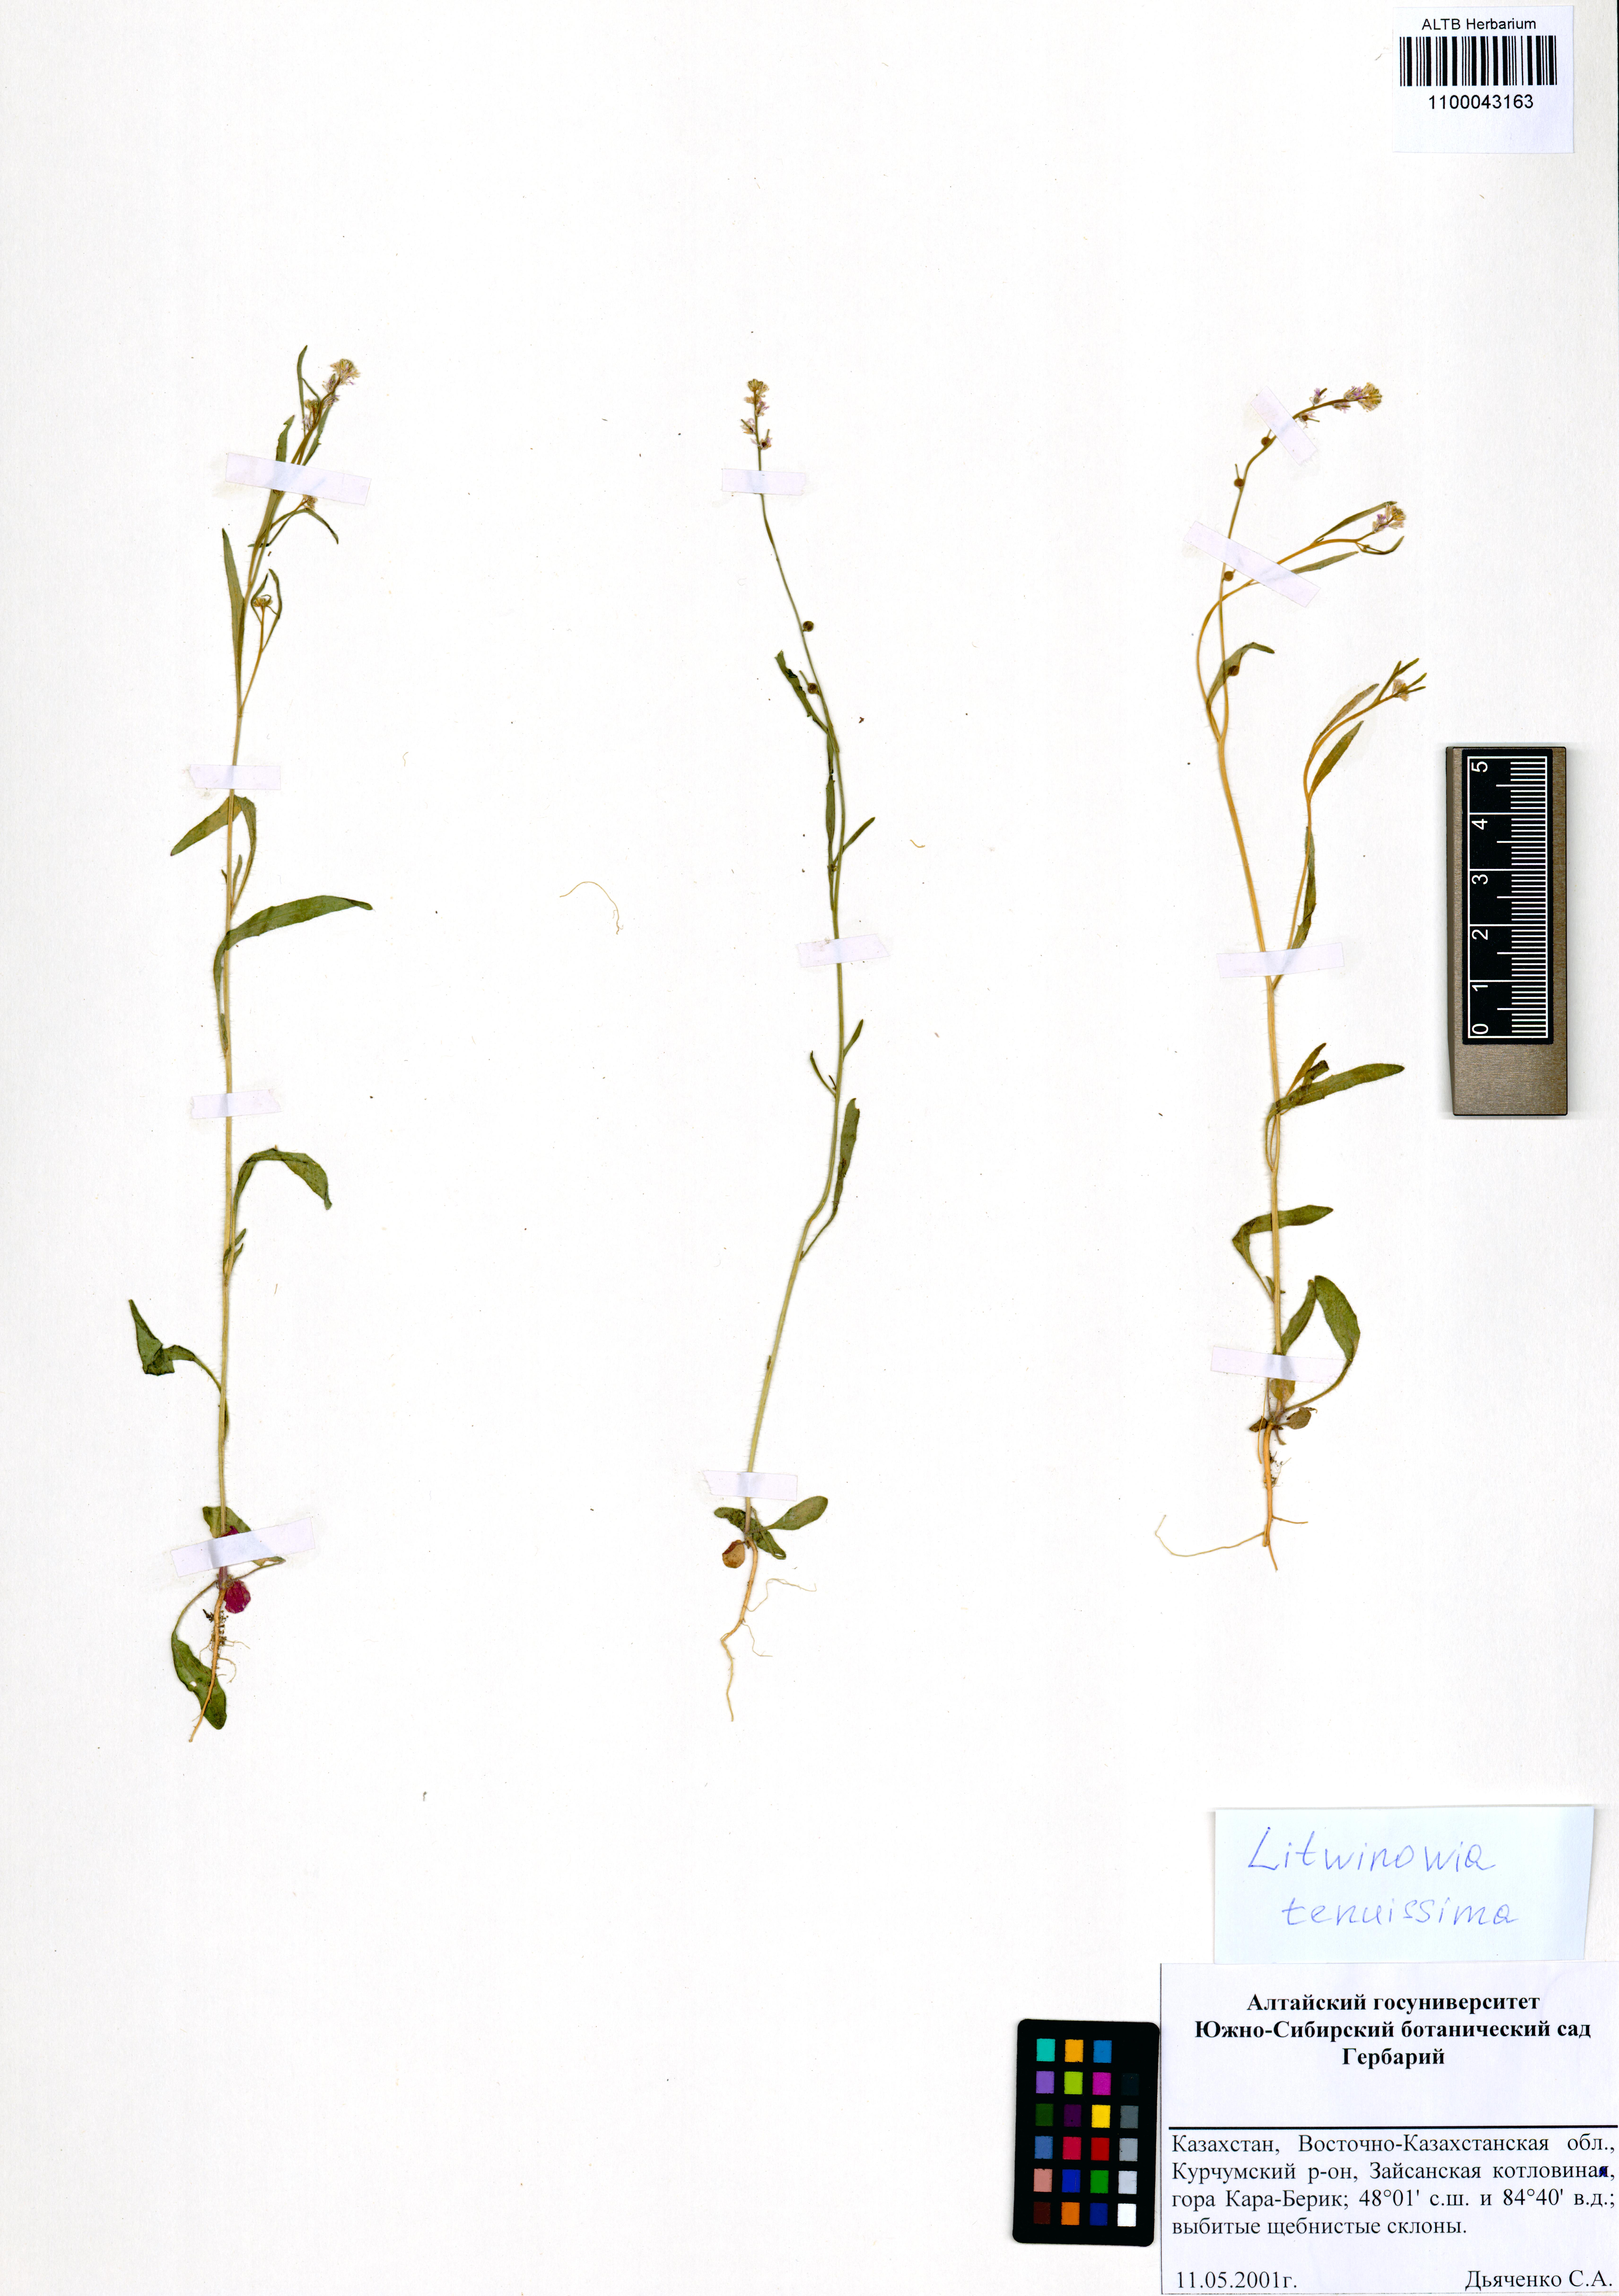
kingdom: Plantae
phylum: Tracheophyta
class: Magnoliopsida
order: Brassicales
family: Brassicaceae
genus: Litwinowia
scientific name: Litwinowia tenuissima
